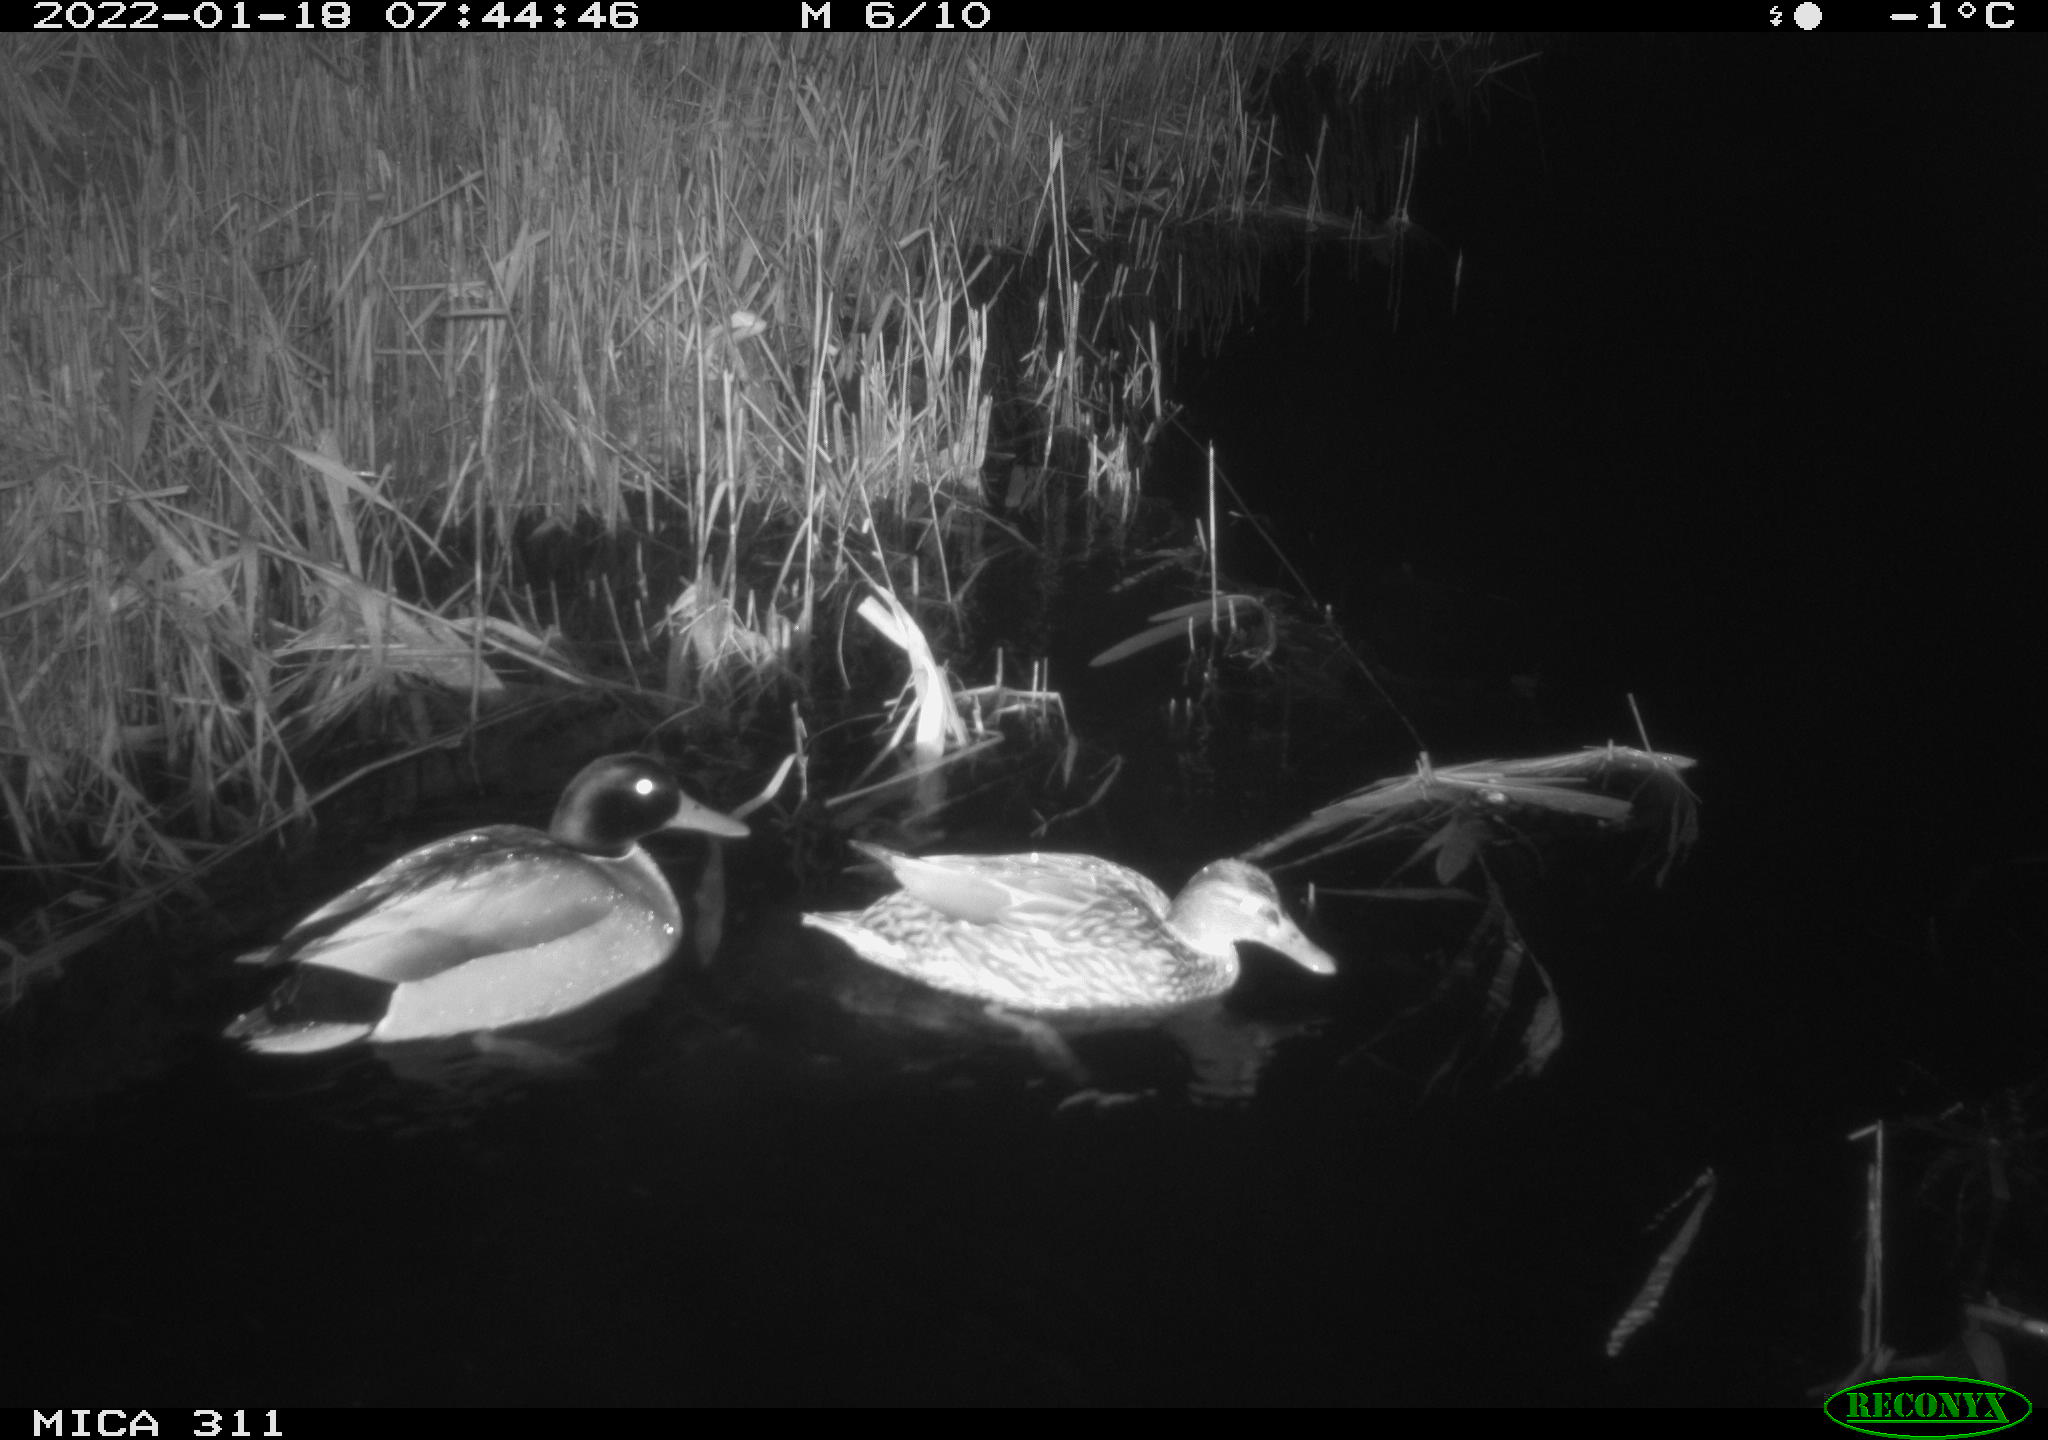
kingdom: Animalia
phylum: Chordata
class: Aves
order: Anseriformes
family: Anatidae
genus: Anas
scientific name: Anas
